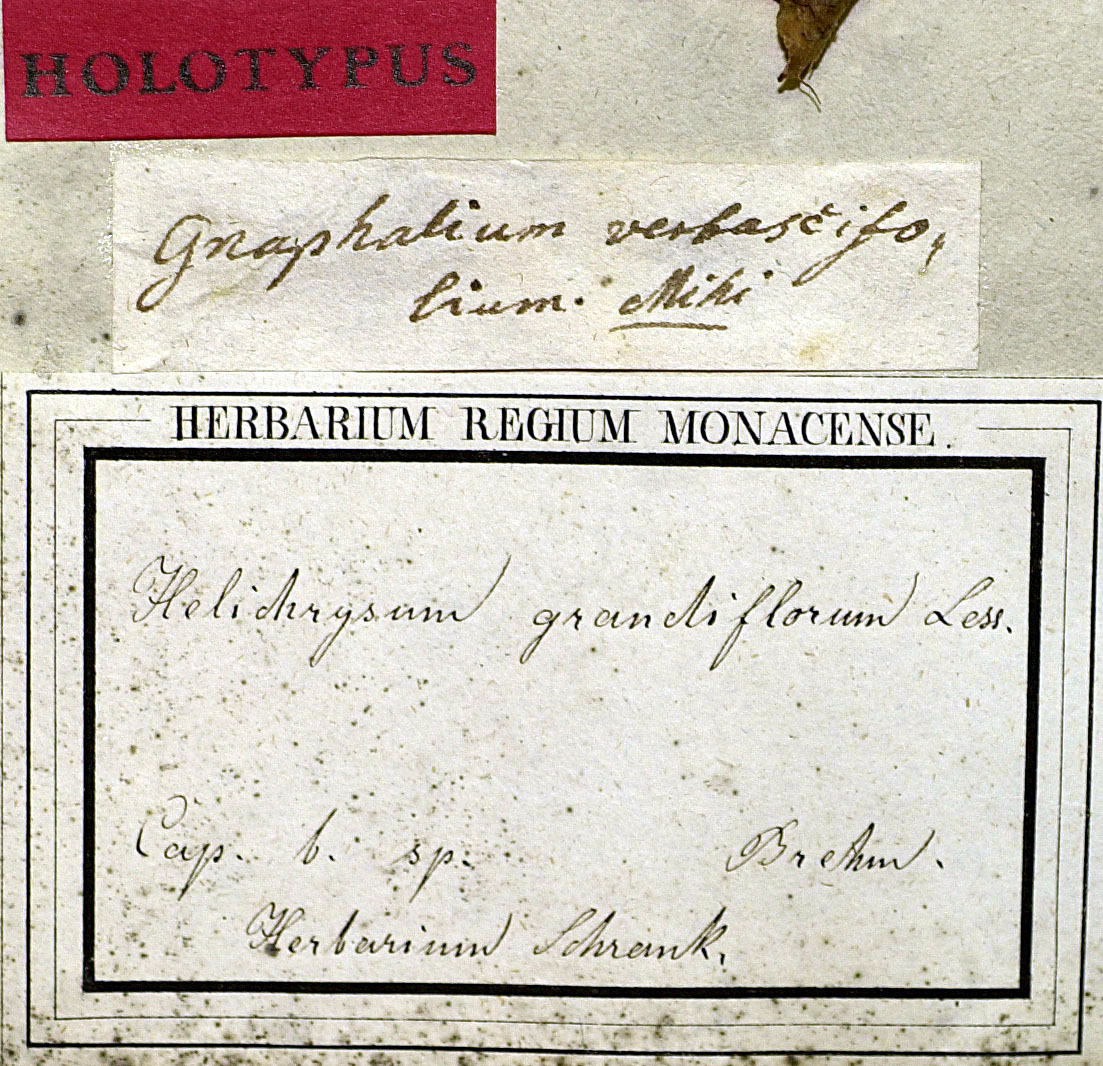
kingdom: Plantae
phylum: Tracheophyta
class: Magnoliopsida
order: Asterales
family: Asteraceae
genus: Helichrysum
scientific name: Helichrysum grandiflorum
